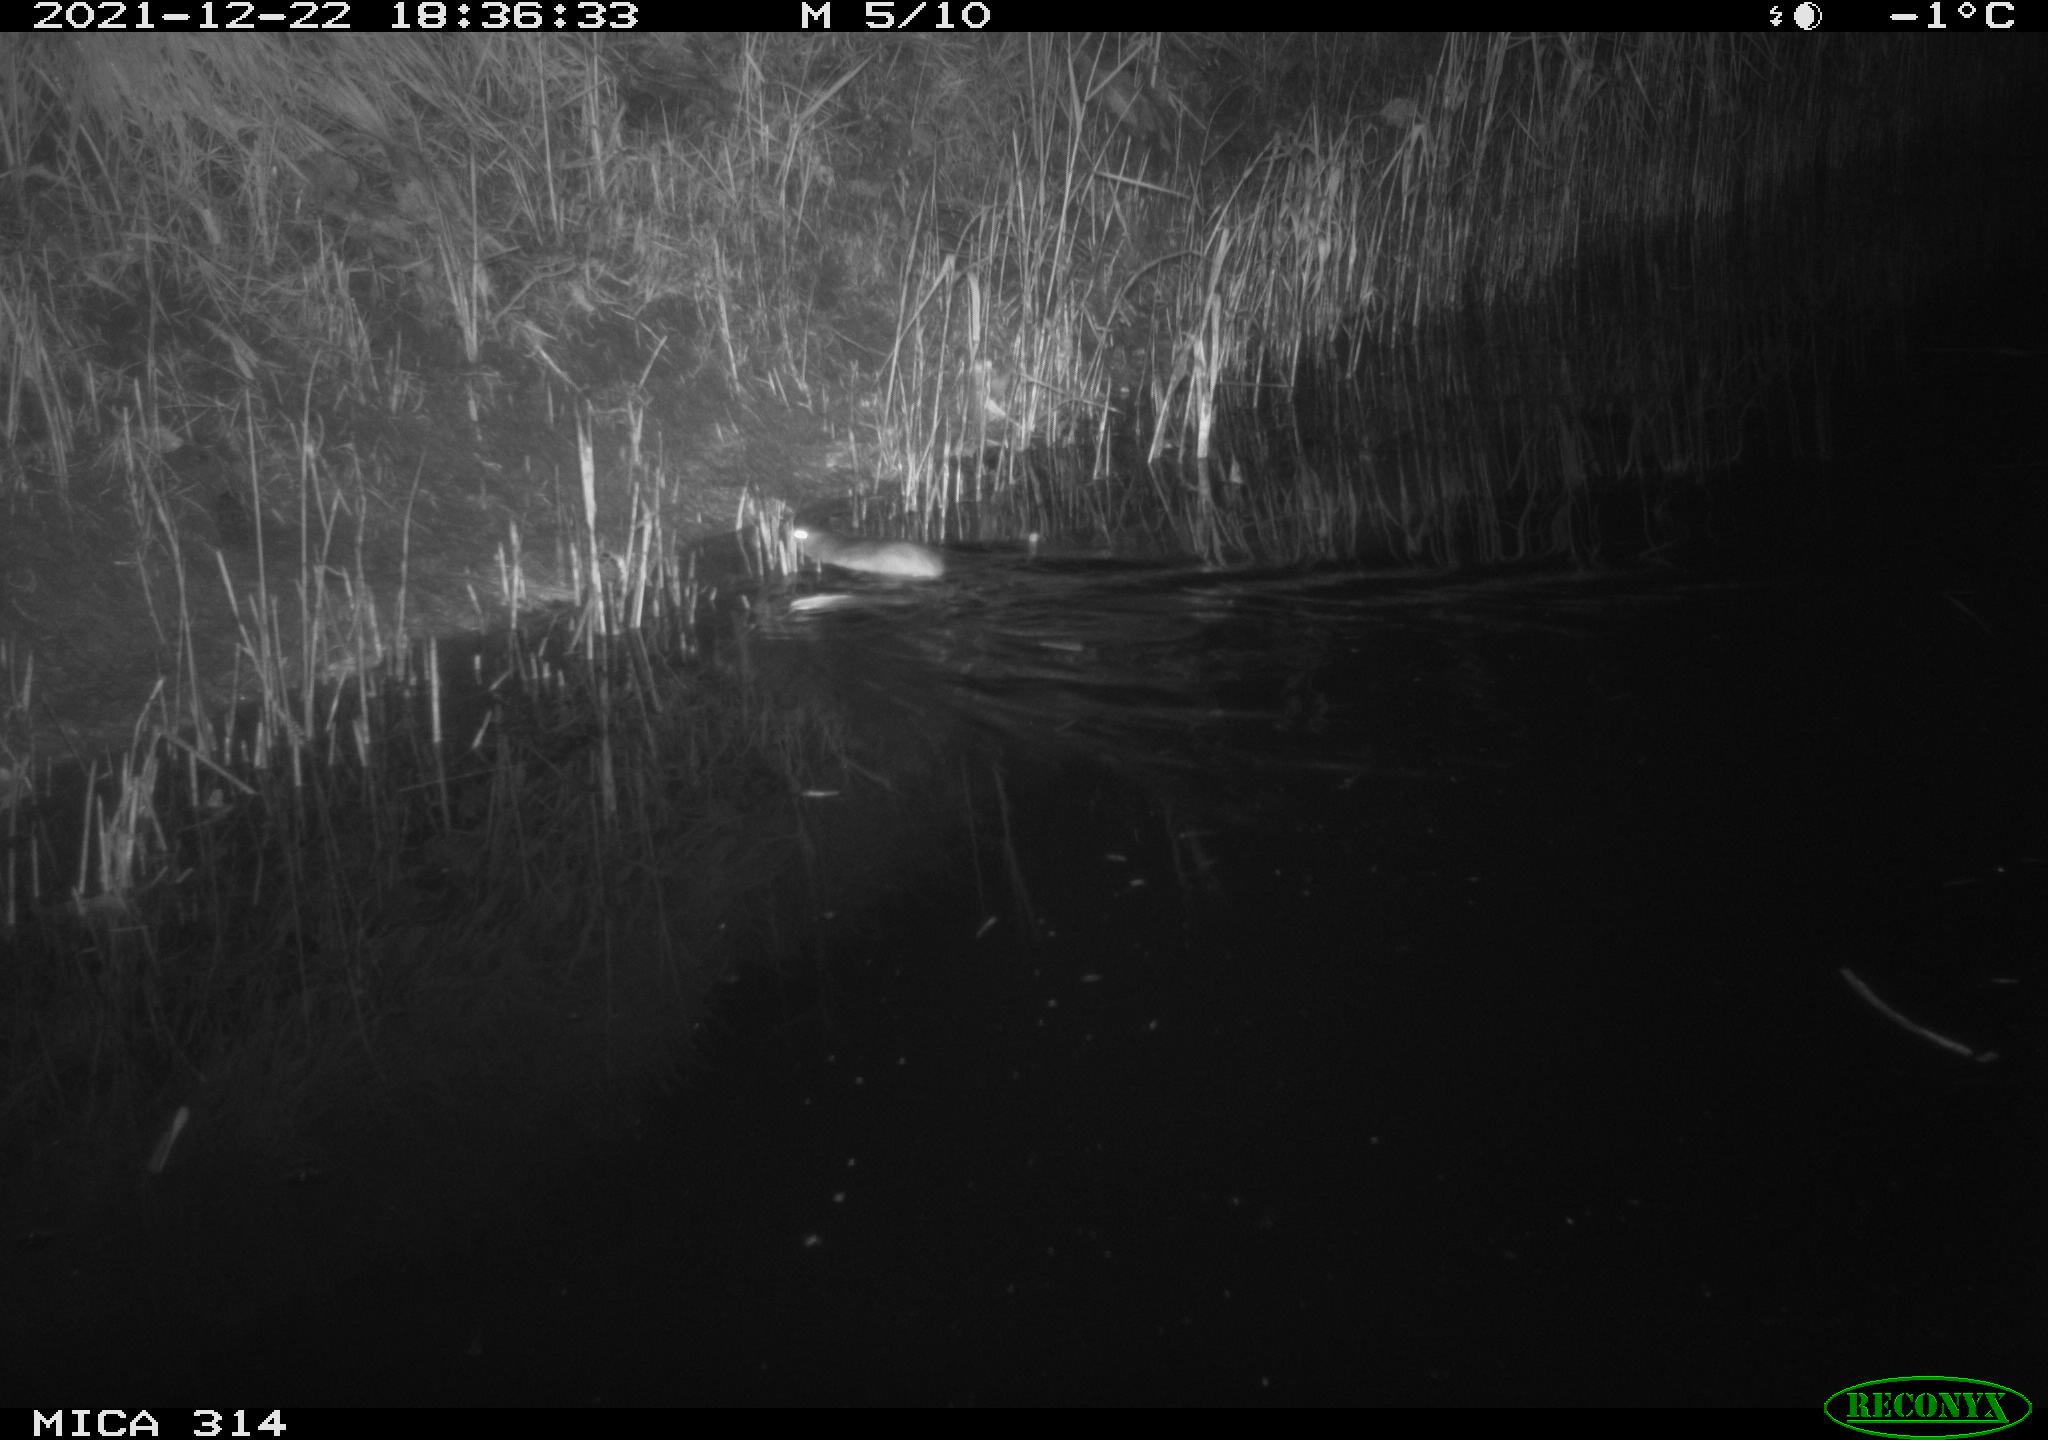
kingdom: Animalia
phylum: Chordata
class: Mammalia
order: Rodentia
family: Muridae
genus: Rattus
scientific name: Rattus norvegicus
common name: Brown rat
